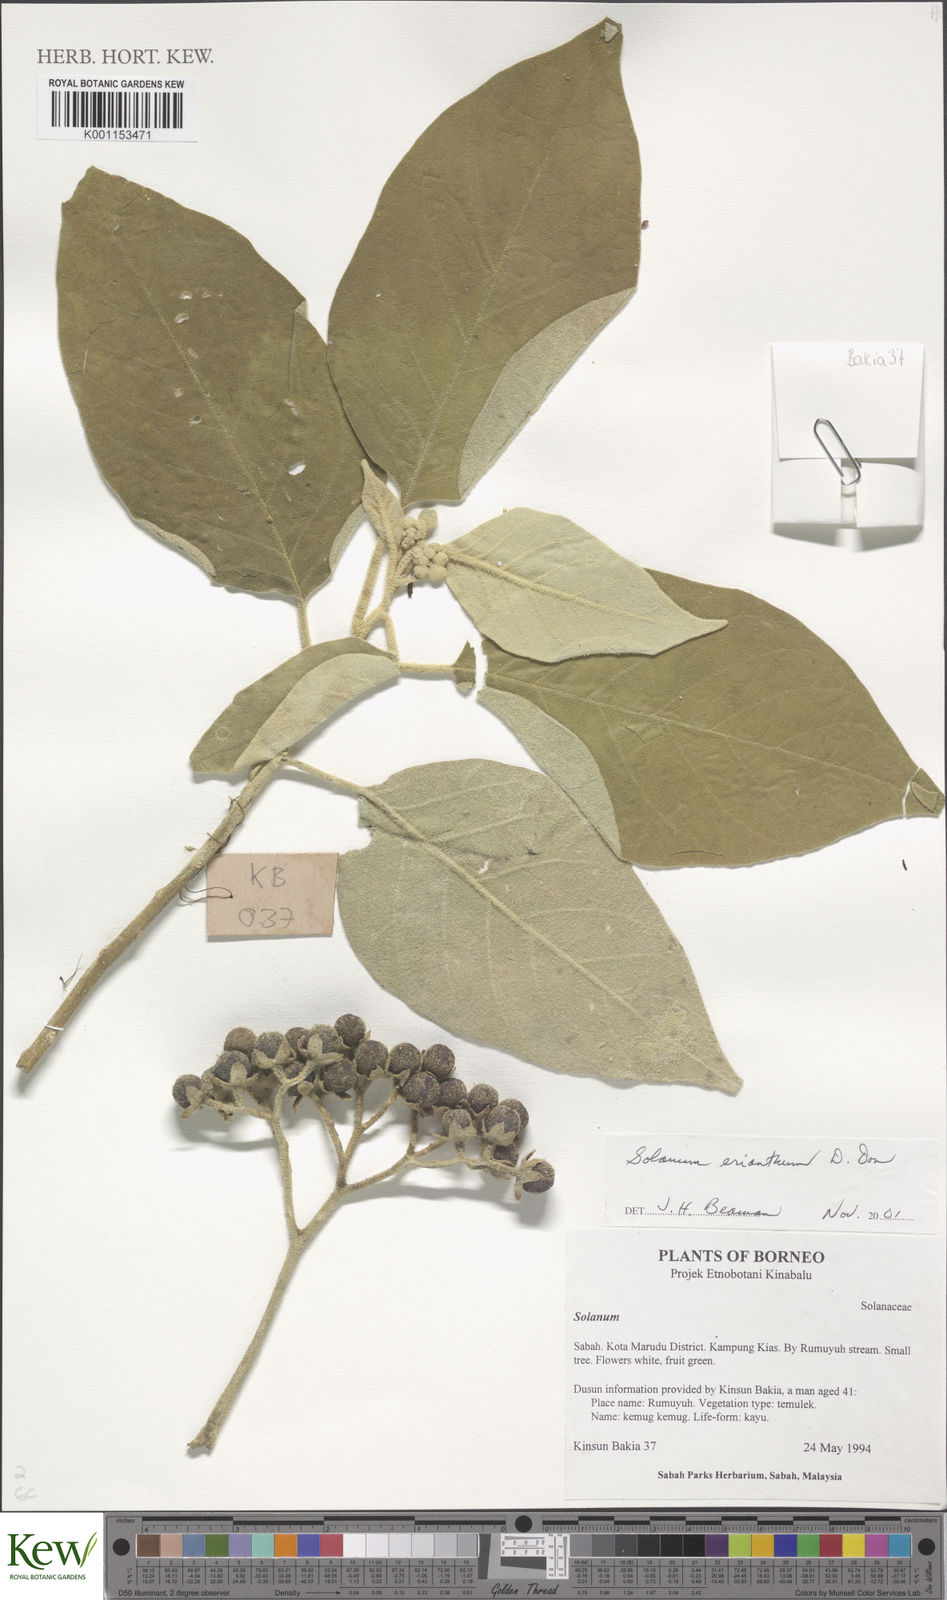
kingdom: Plantae
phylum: Tracheophyta
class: Magnoliopsida
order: Solanales
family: Solanaceae
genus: Solanum
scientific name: Solanum erianthum
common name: Tobacco-tree
